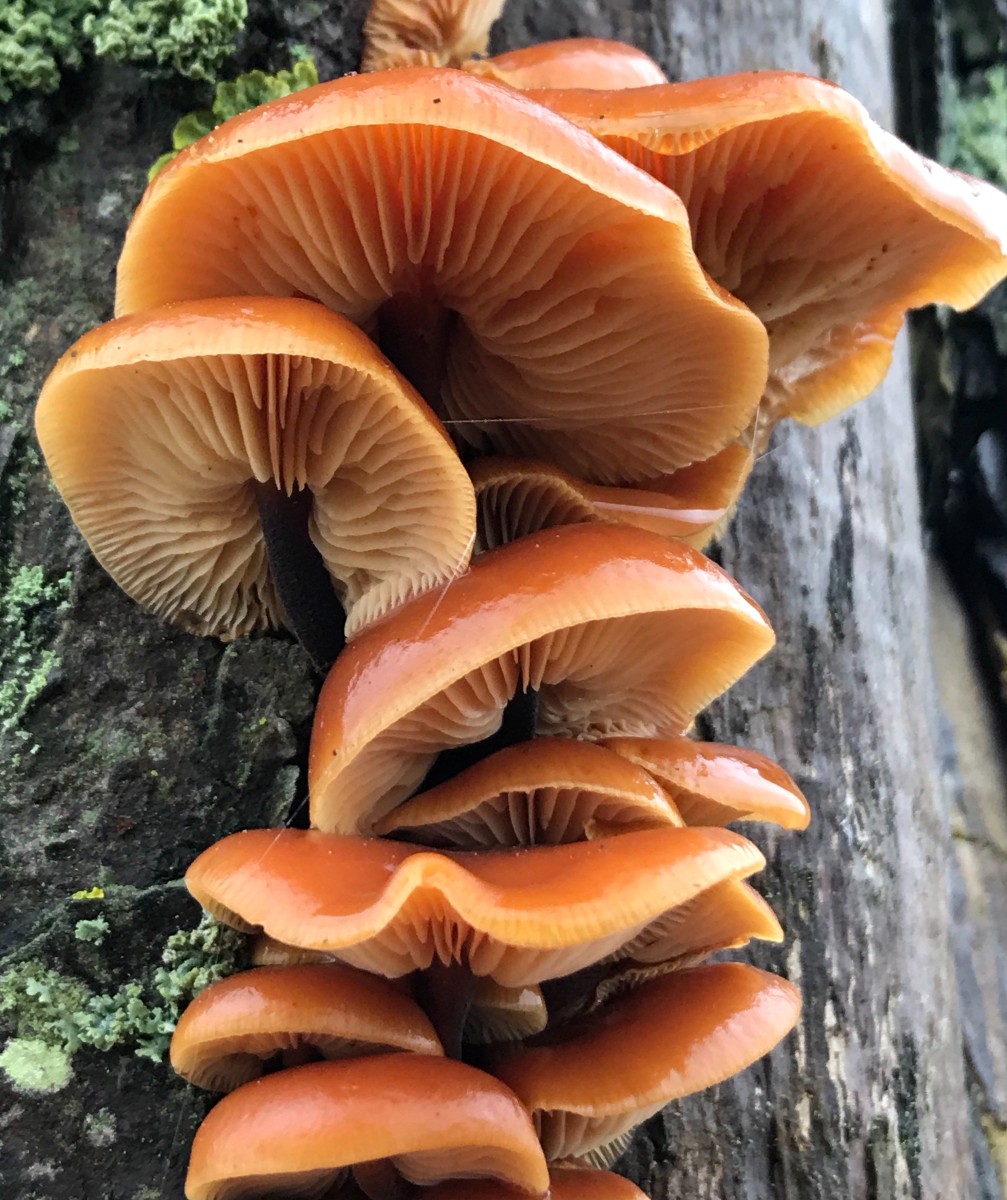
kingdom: Fungi
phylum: Basidiomycota
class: Agaricomycetes
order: Agaricales
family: Physalacriaceae
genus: Flammulina
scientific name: Flammulina velutipes
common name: gul fløjlsfod
